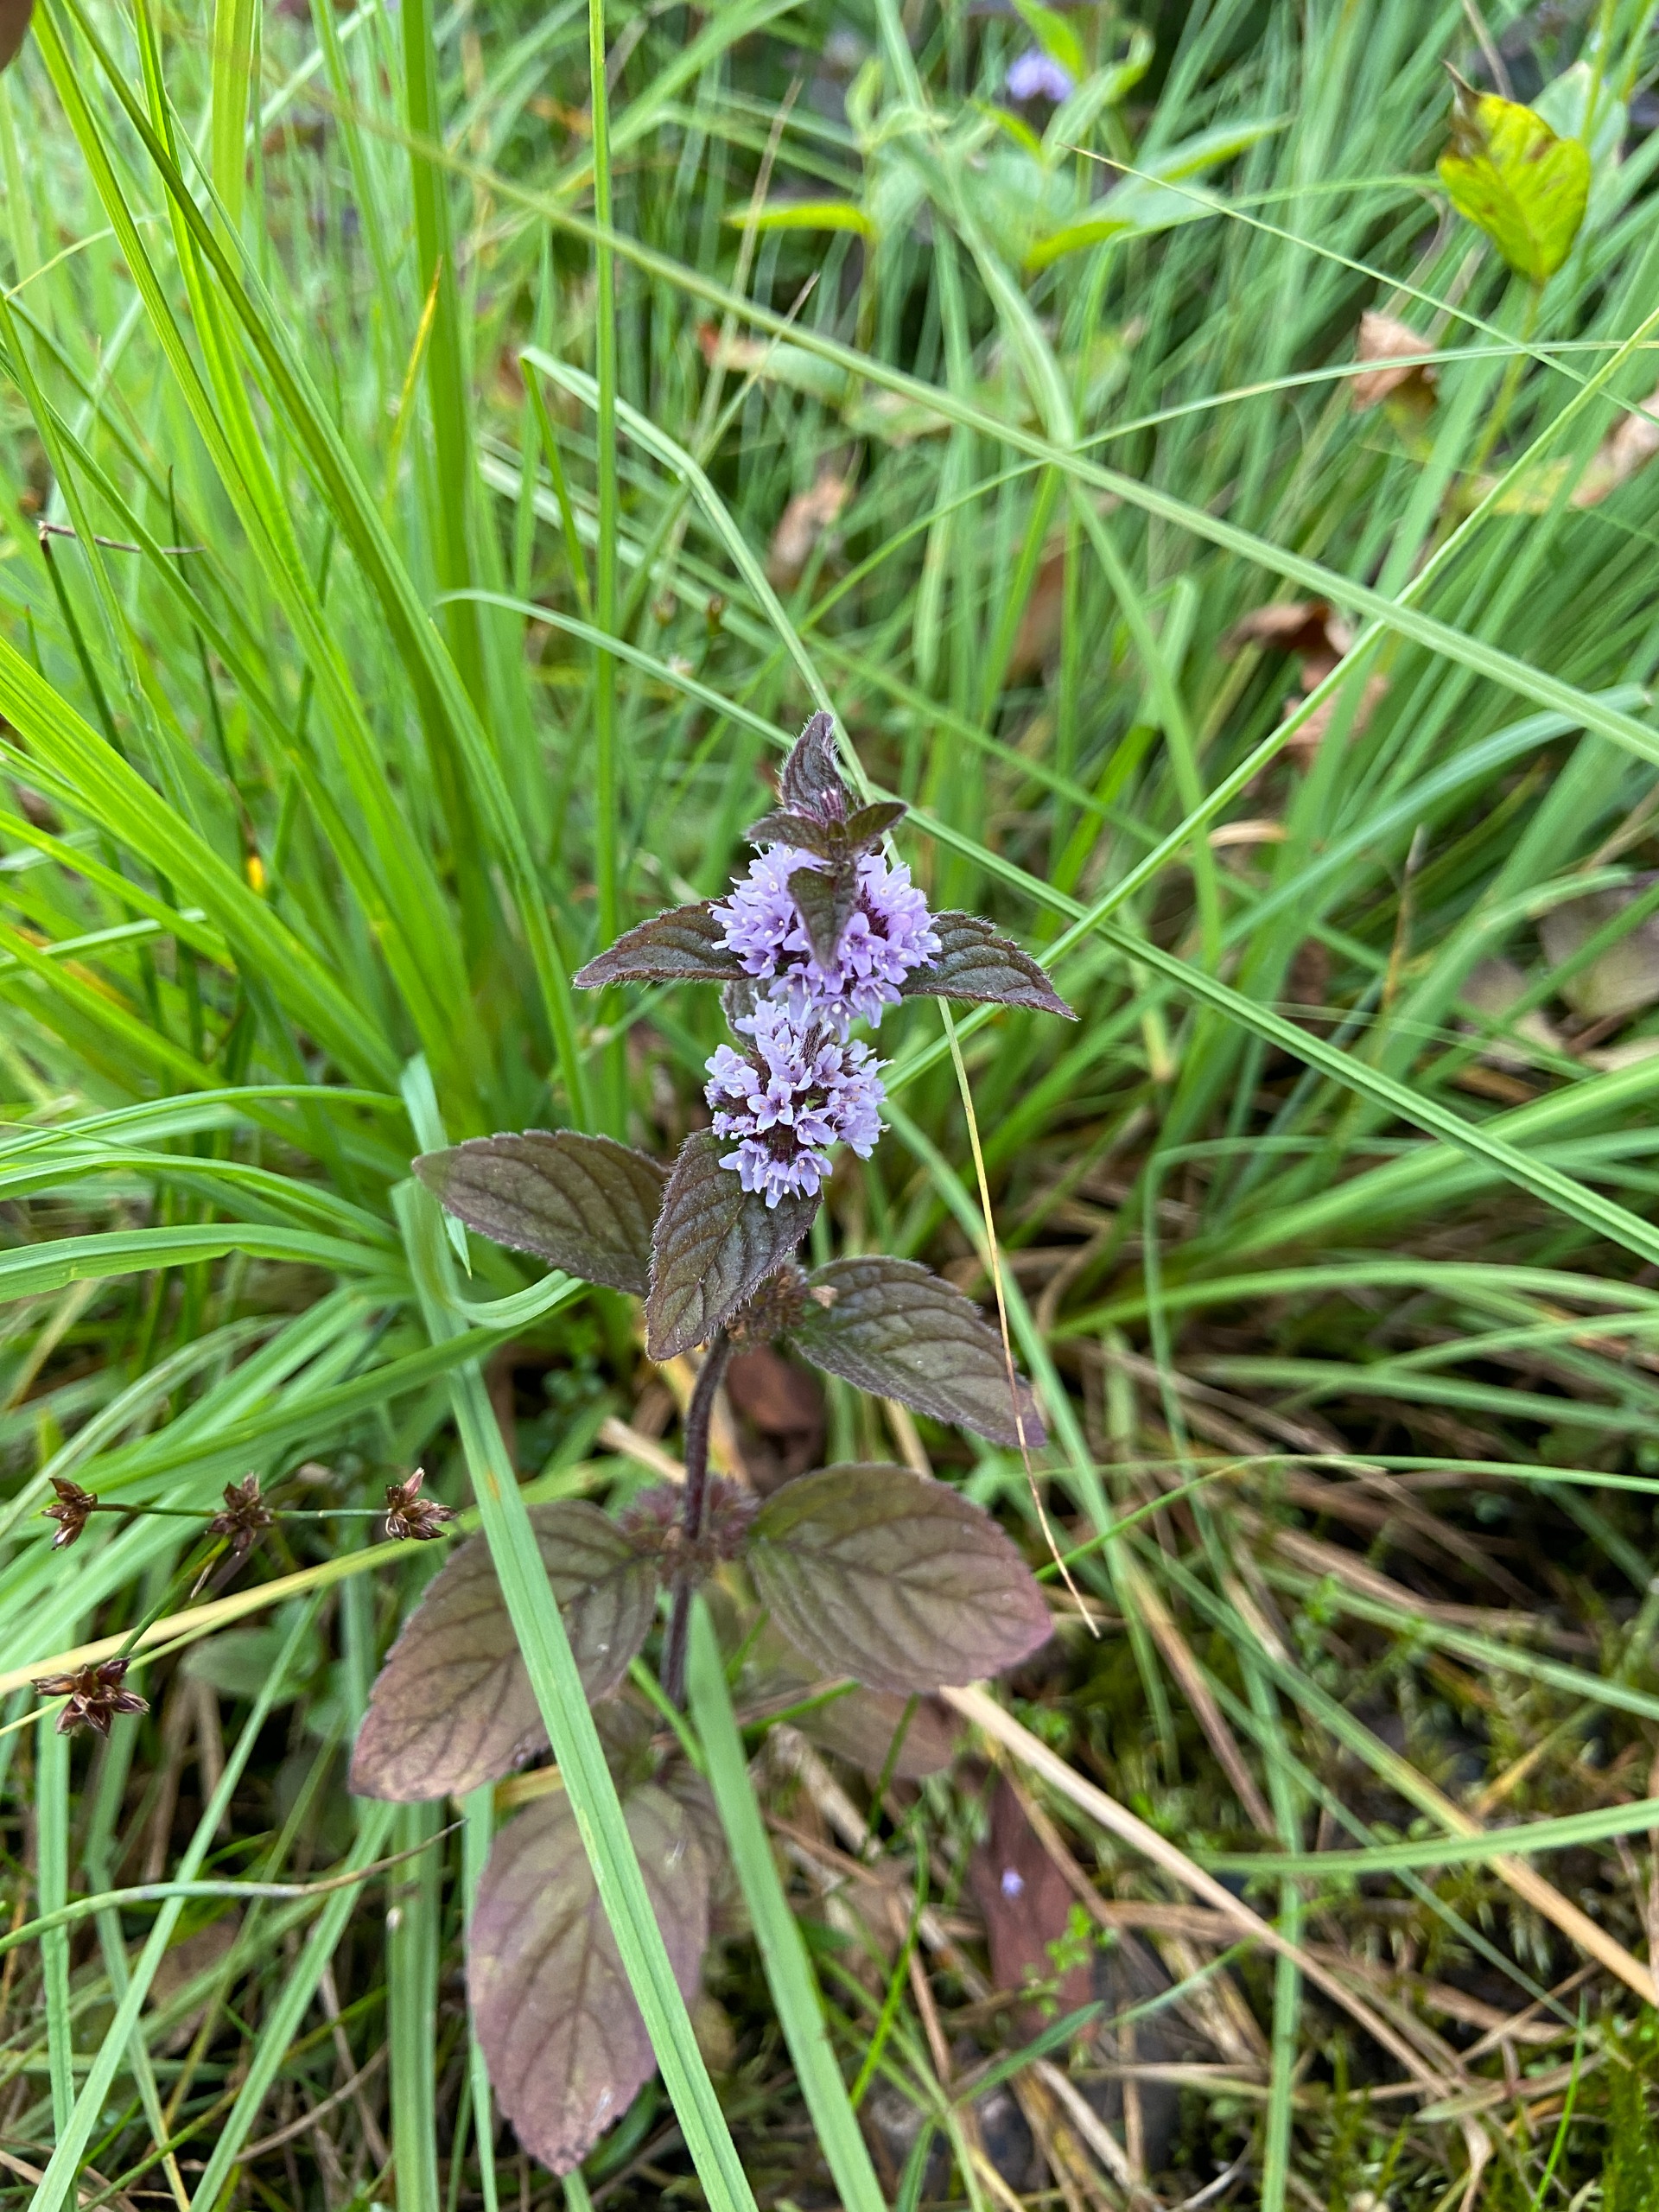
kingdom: Plantae
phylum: Tracheophyta
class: Magnoliopsida
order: Lamiales
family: Lamiaceae
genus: Mentha
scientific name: Mentha aquatica
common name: Vand-mynte
